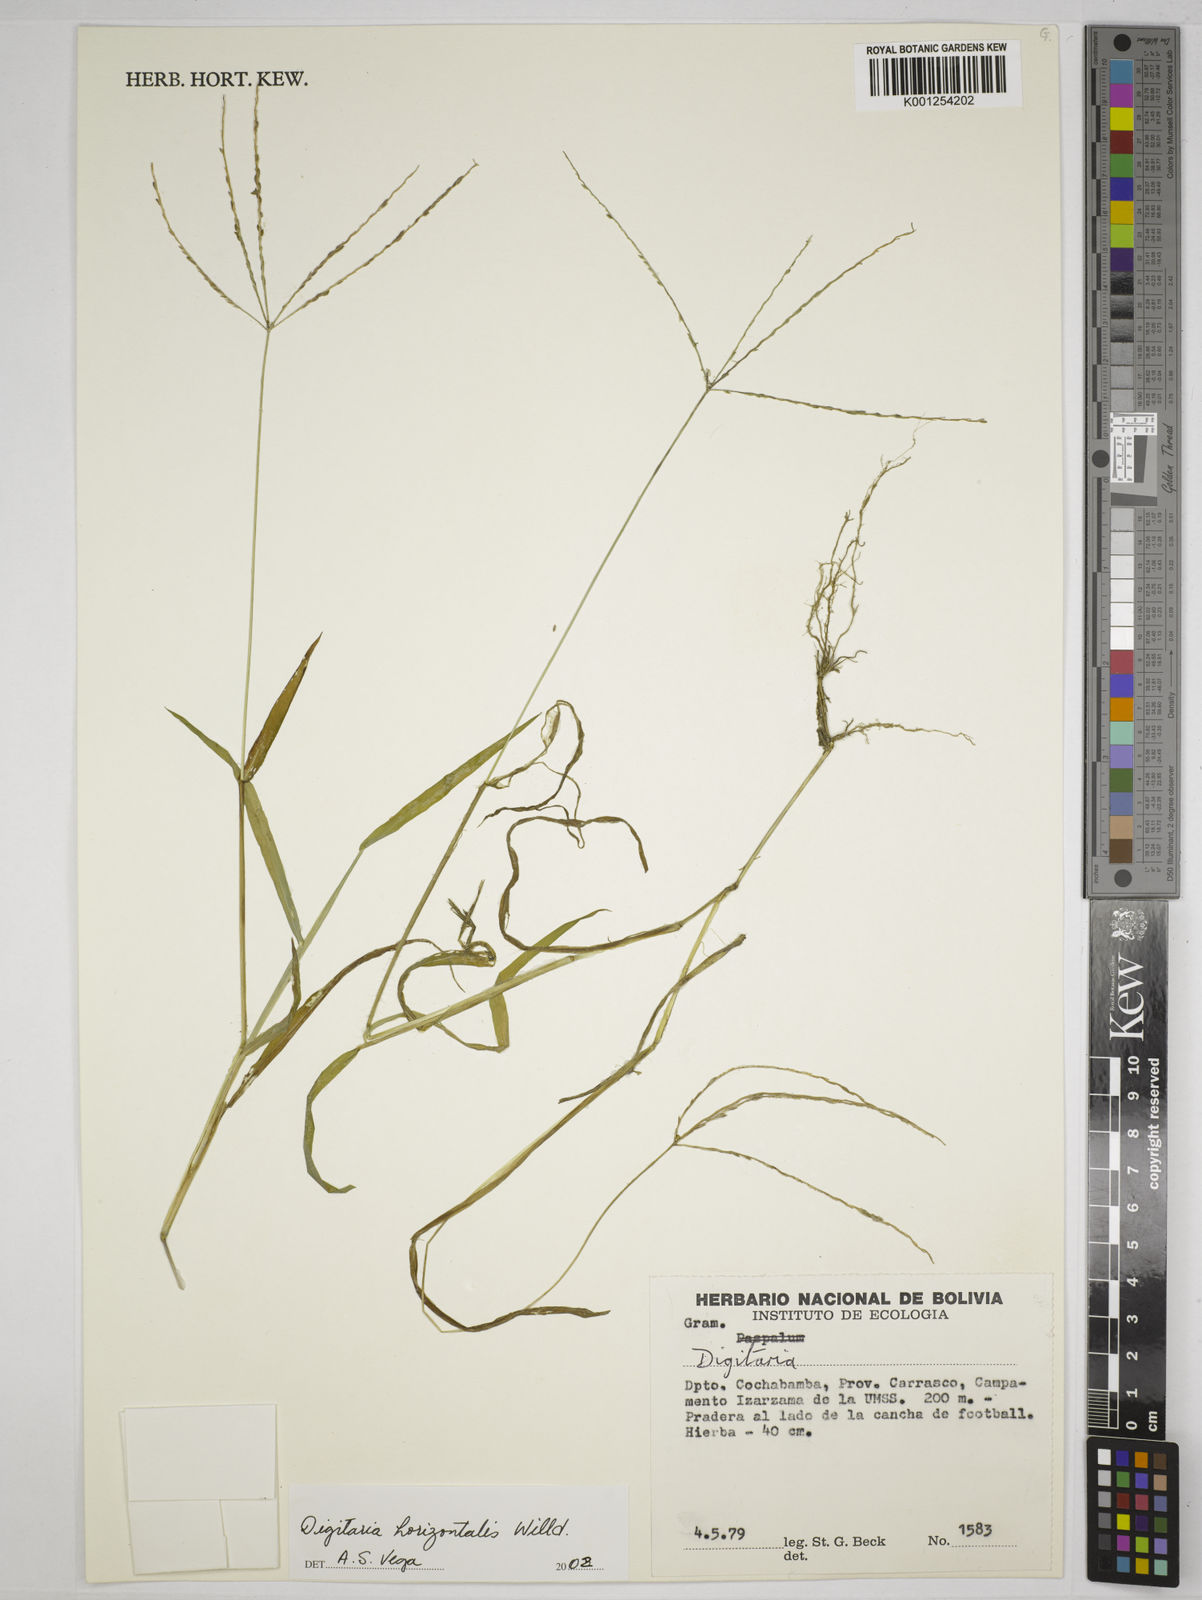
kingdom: Plantae
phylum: Tracheophyta
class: Liliopsida
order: Poales
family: Poaceae
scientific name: Poaceae
